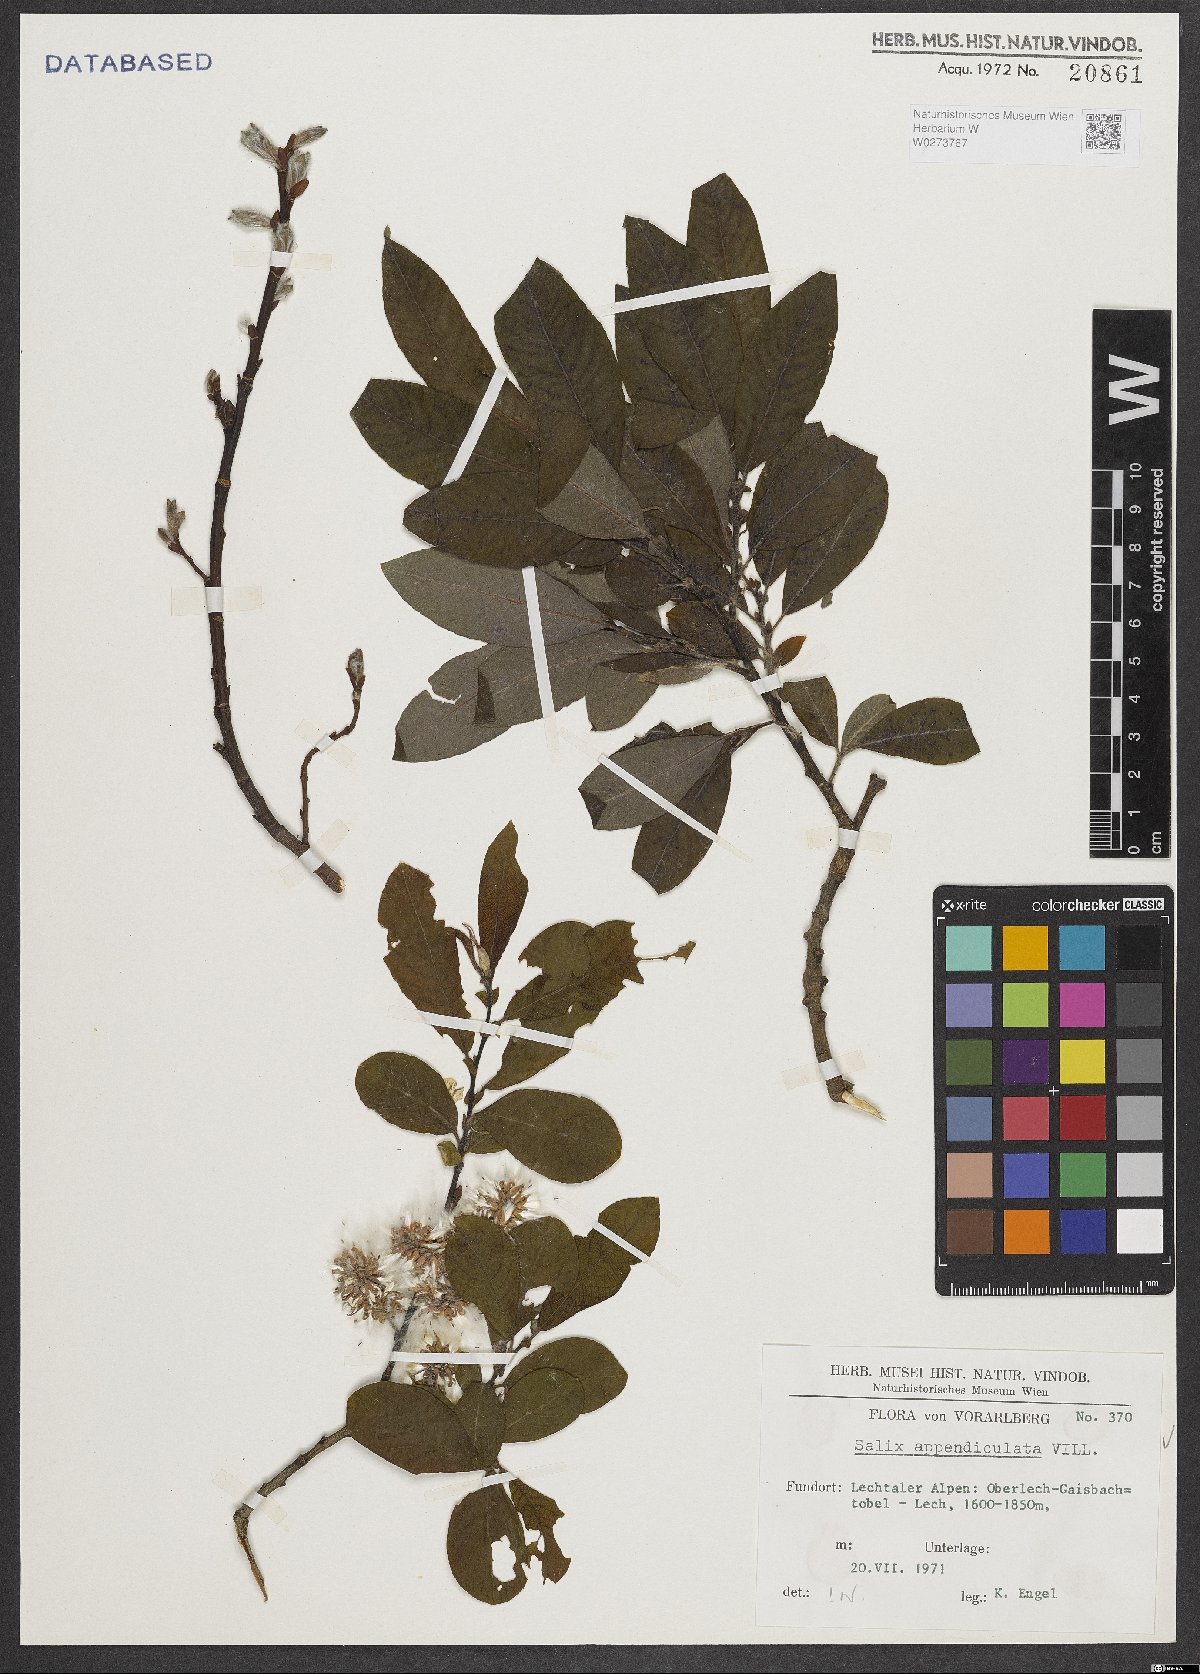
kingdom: Plantae
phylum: Tracheophyta
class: Magnoliopsida
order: Malpighiales
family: Salicaceae
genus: Salix
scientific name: Salix appendiculata
